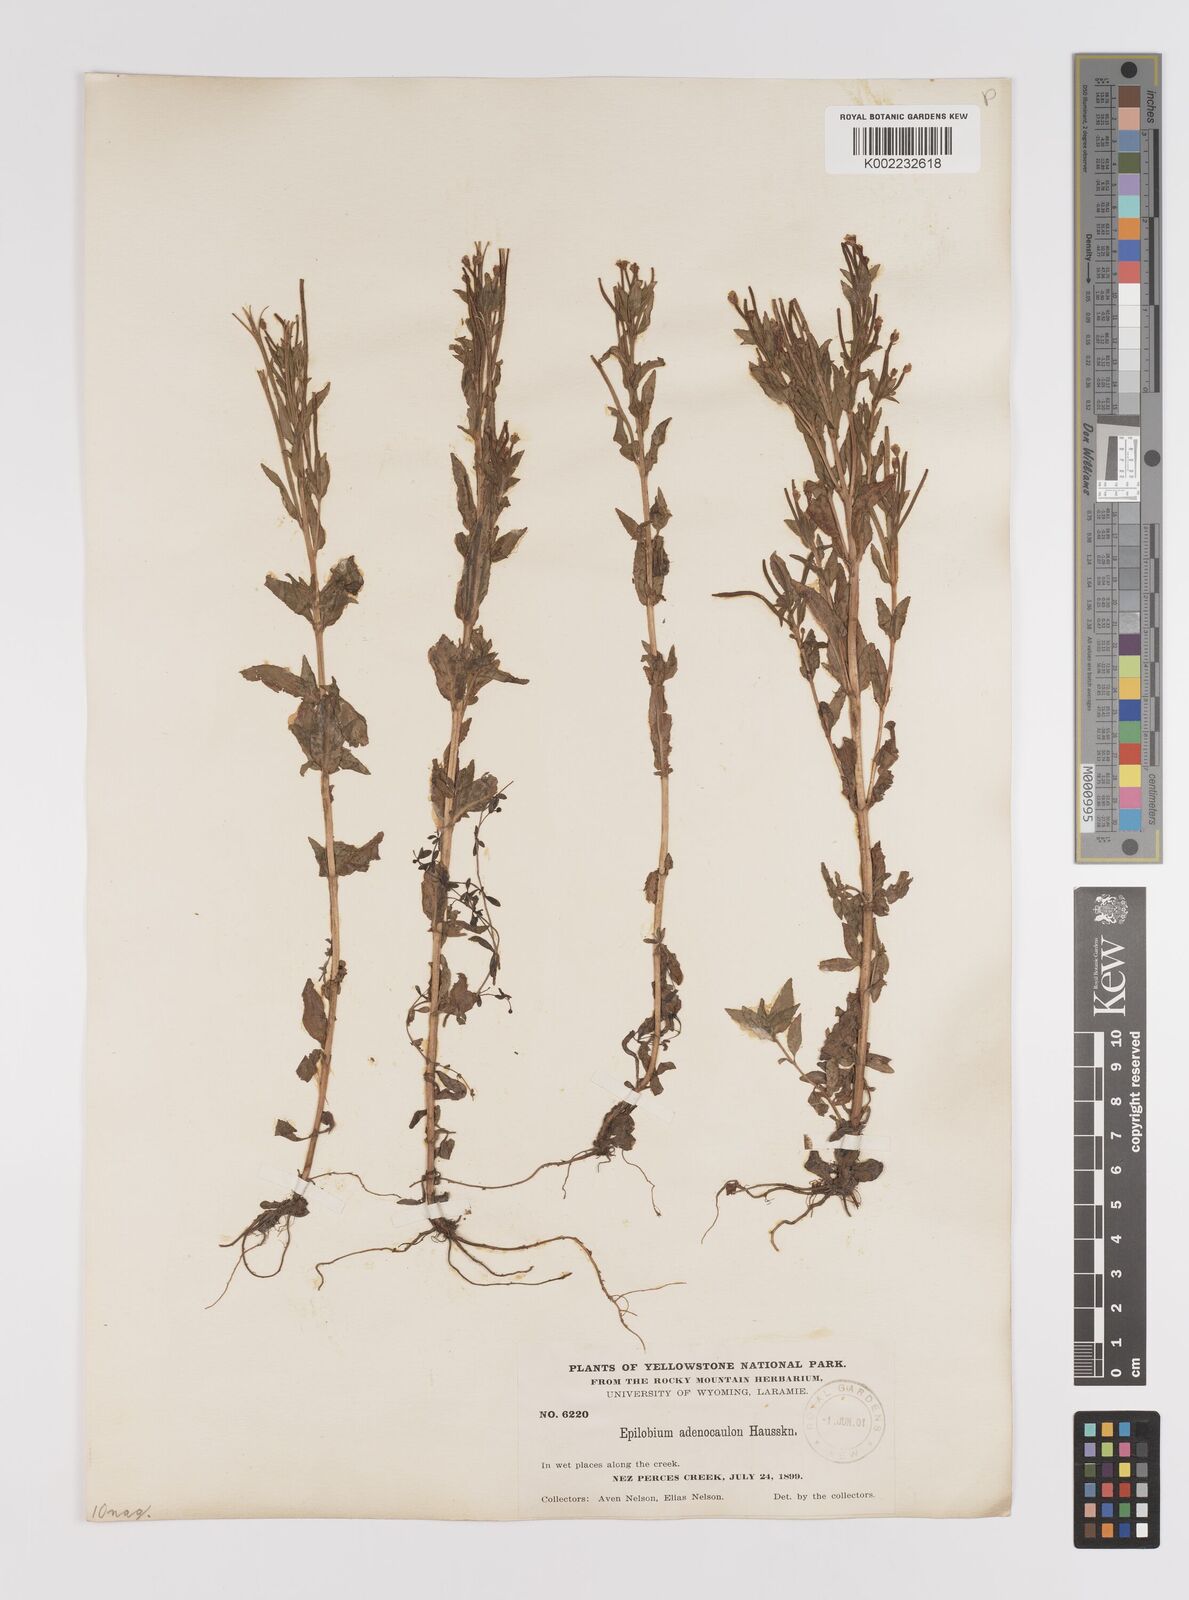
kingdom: Plantae
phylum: Tracheophyta
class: Magnoliopsida
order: Myrtales
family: Onagraceae
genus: Epilobium
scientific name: Epilobium ciliatum
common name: American willowherb
